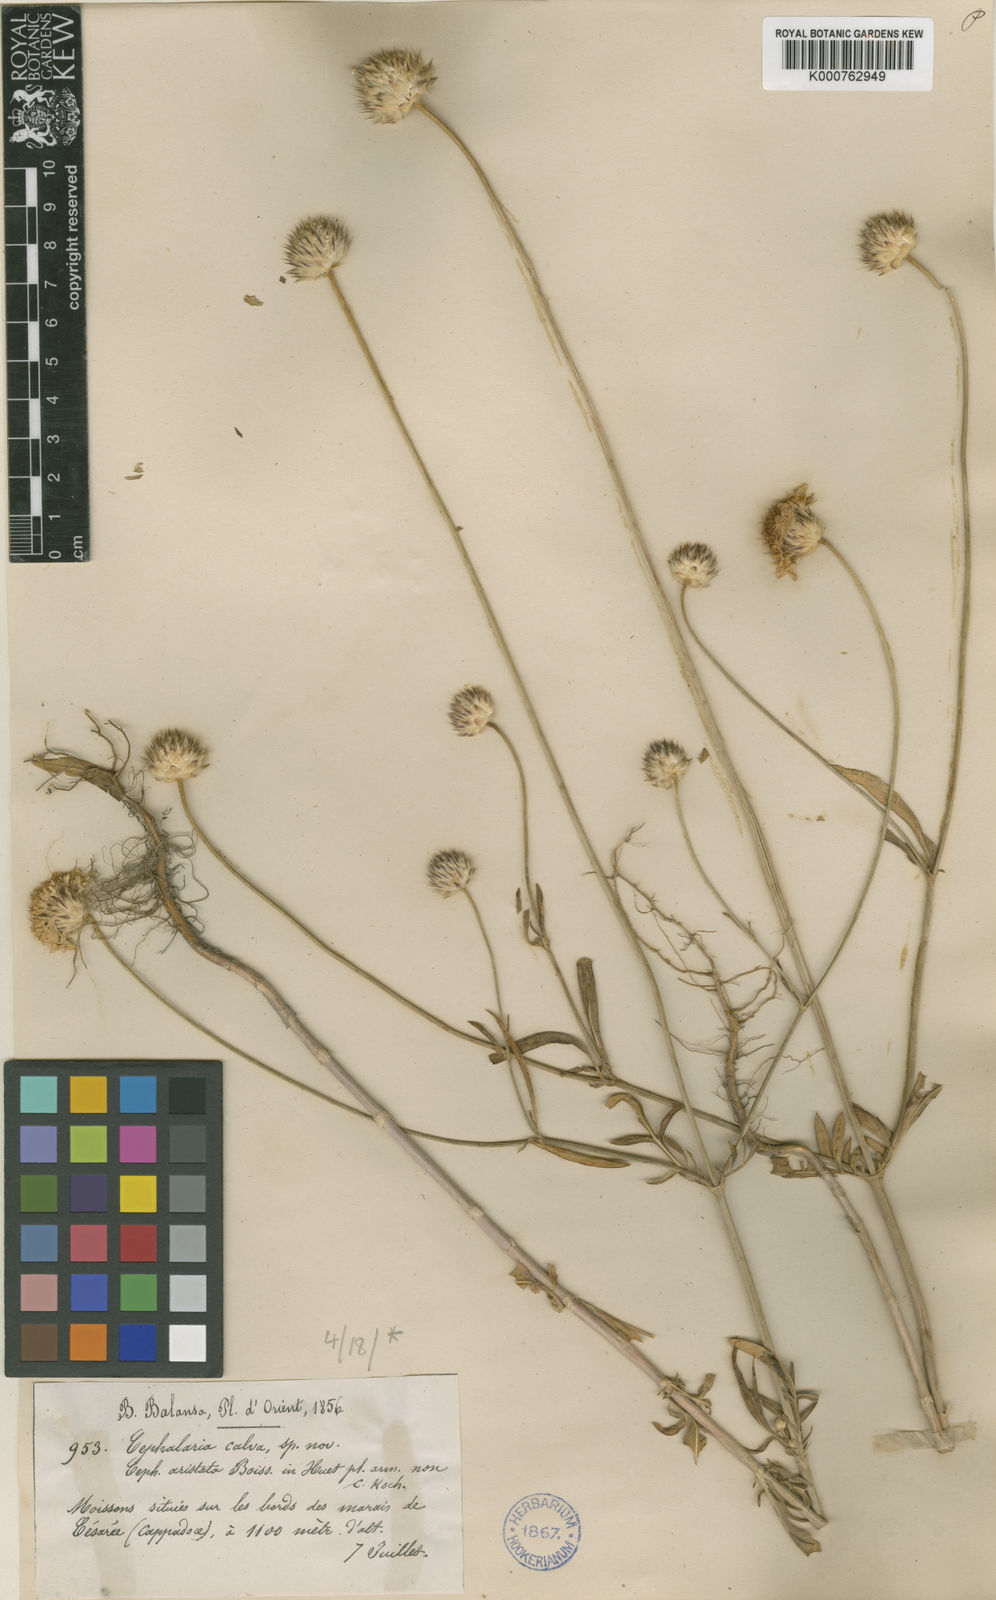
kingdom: Plantae
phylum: Tracheophyta
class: Magnoliopsida
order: Dipsacales
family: Caprifoliaceae
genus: Cephalaria
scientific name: Cephalaria aristata
